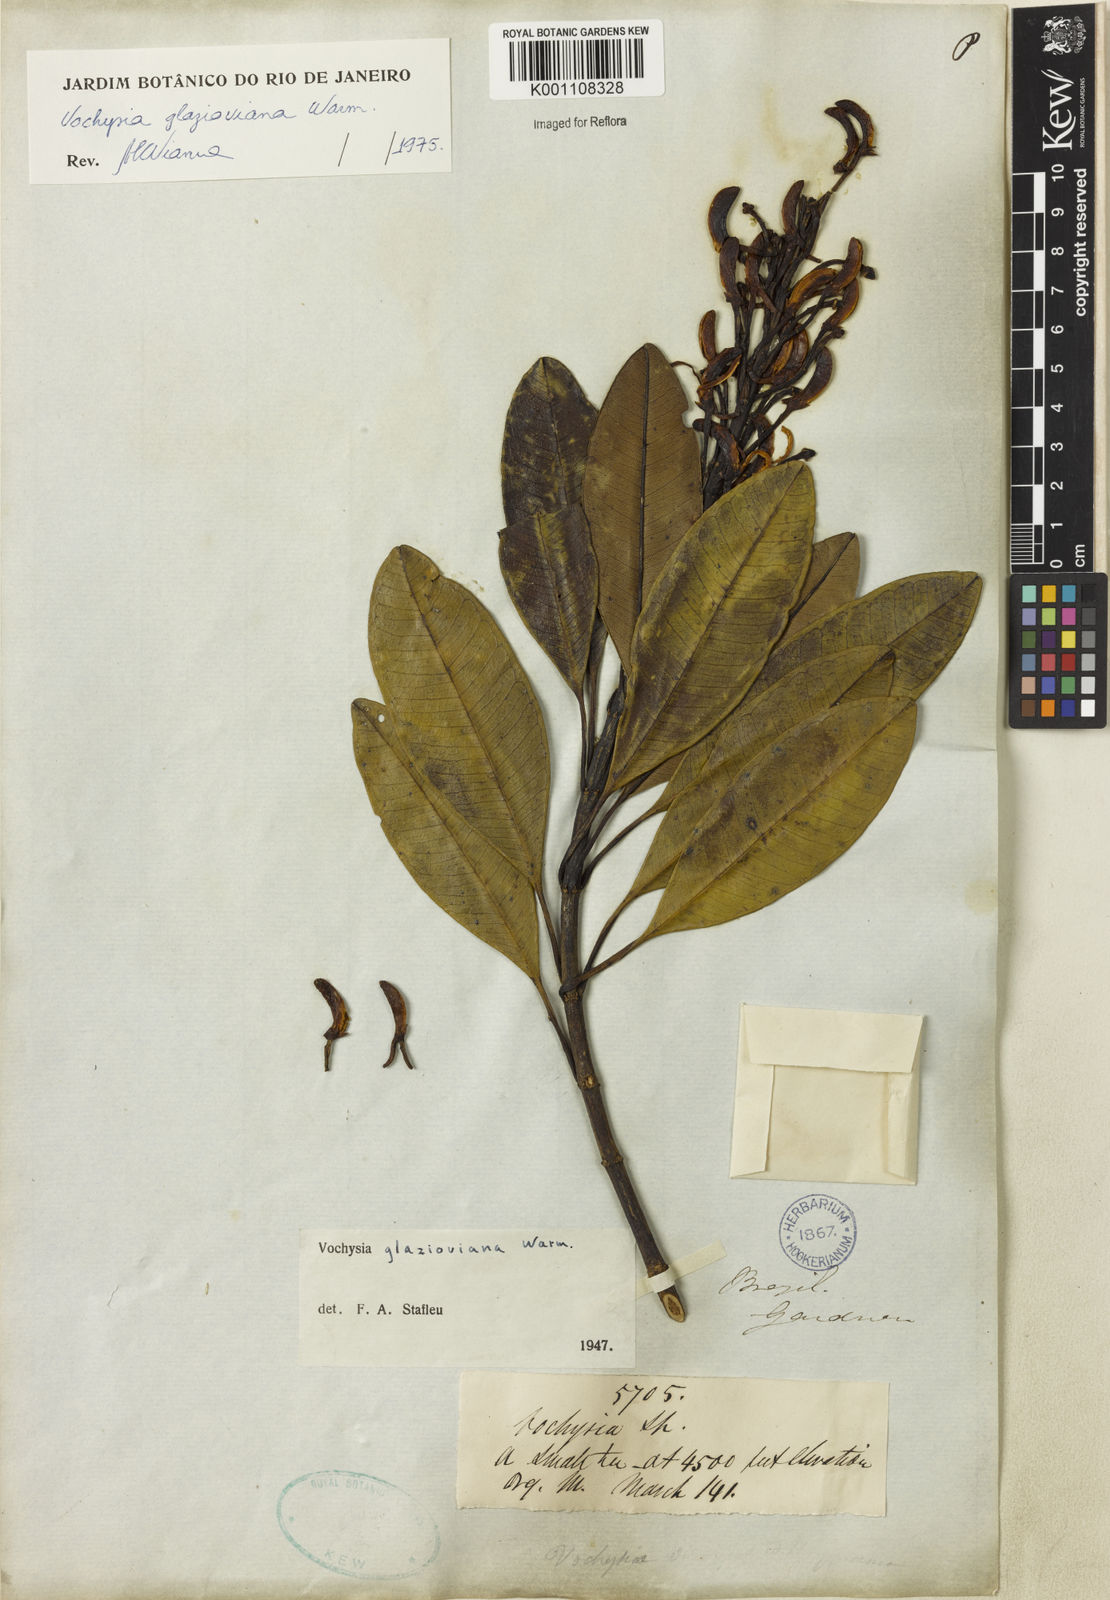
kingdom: Plantae
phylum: Tracheophyta
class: Magnoliopsida
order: Myrtales
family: Vochysiaceae
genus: Vochysia
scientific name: Vochysia glazioviana
